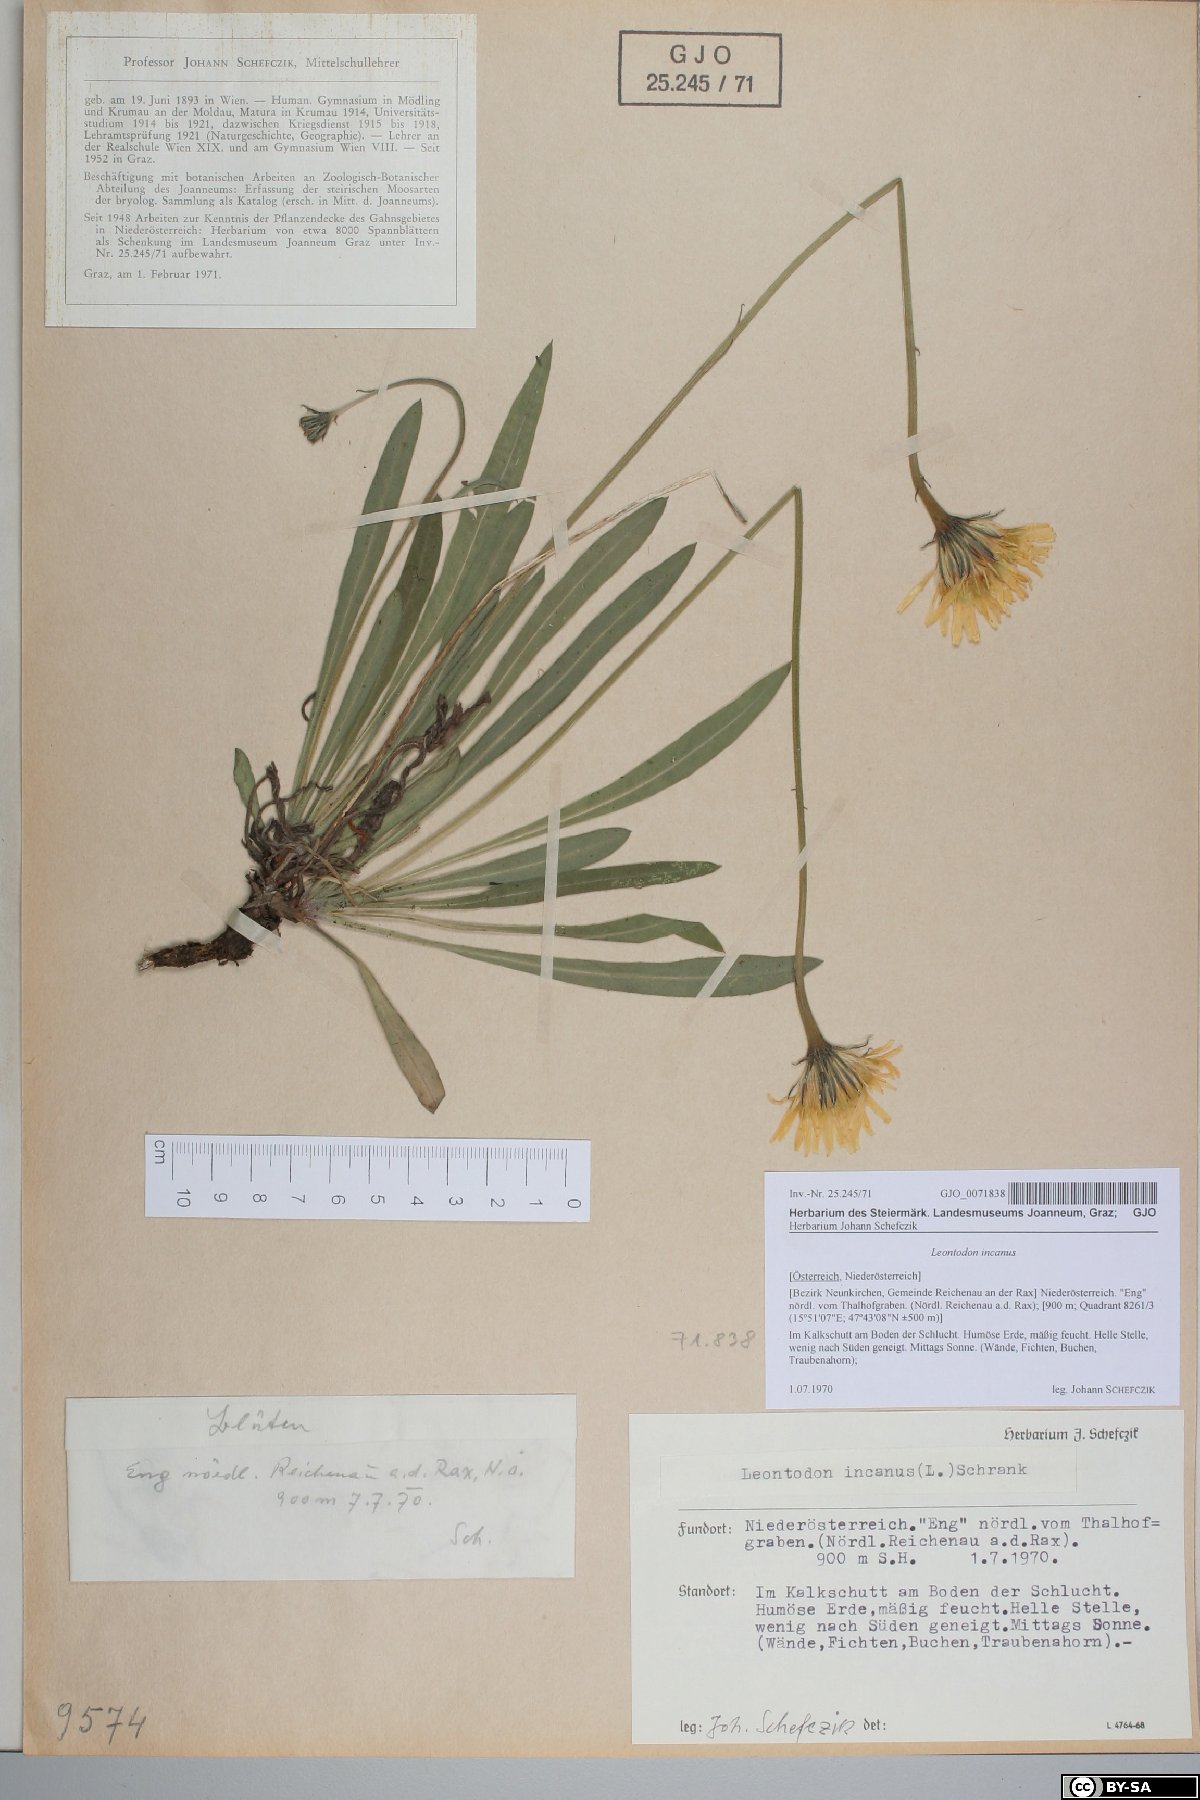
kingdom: Plantae
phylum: Tracheophyta
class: Magnoliopsida
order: Asterales
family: Asteraceae
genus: Leontodon
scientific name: Leontodon incanus
